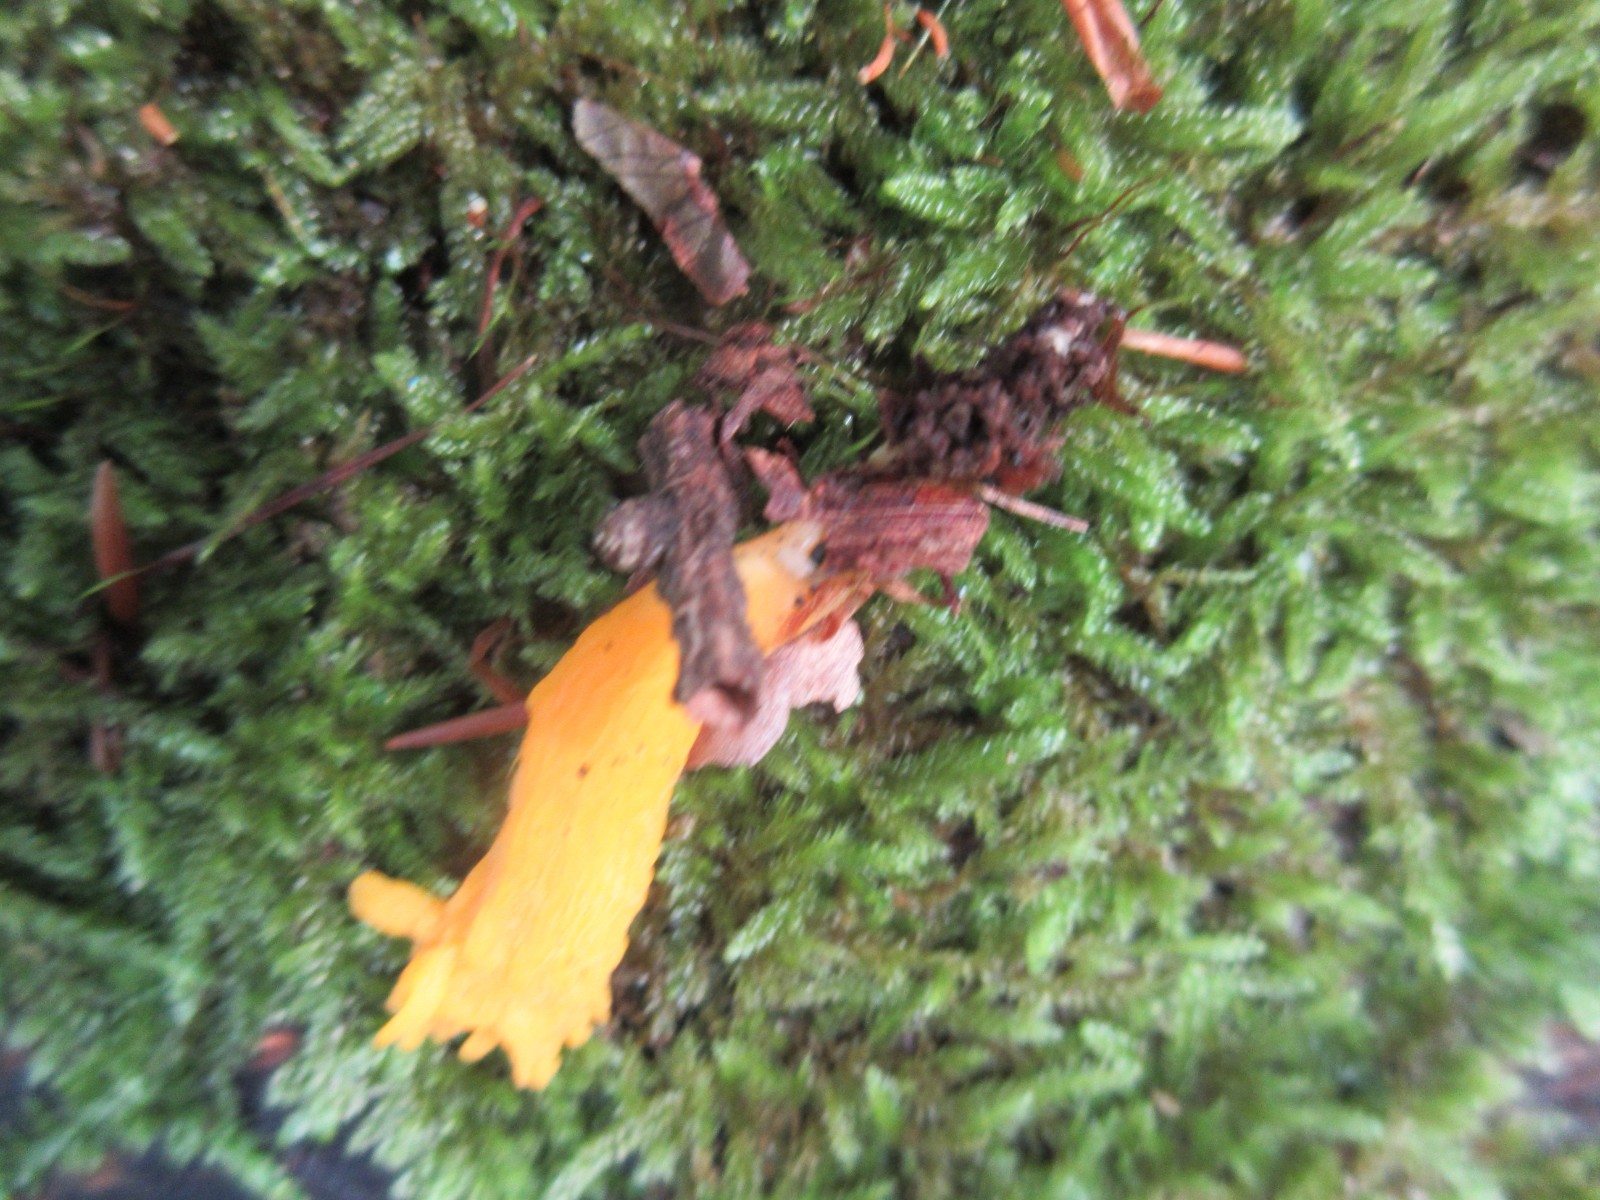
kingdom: Fungi
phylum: Basidiomycota
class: Dacrymycetes
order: Dacrymycetales
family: Dacrymycetaceae
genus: Calocera
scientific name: Calocera viscosa
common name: almindelig guldgaffel
